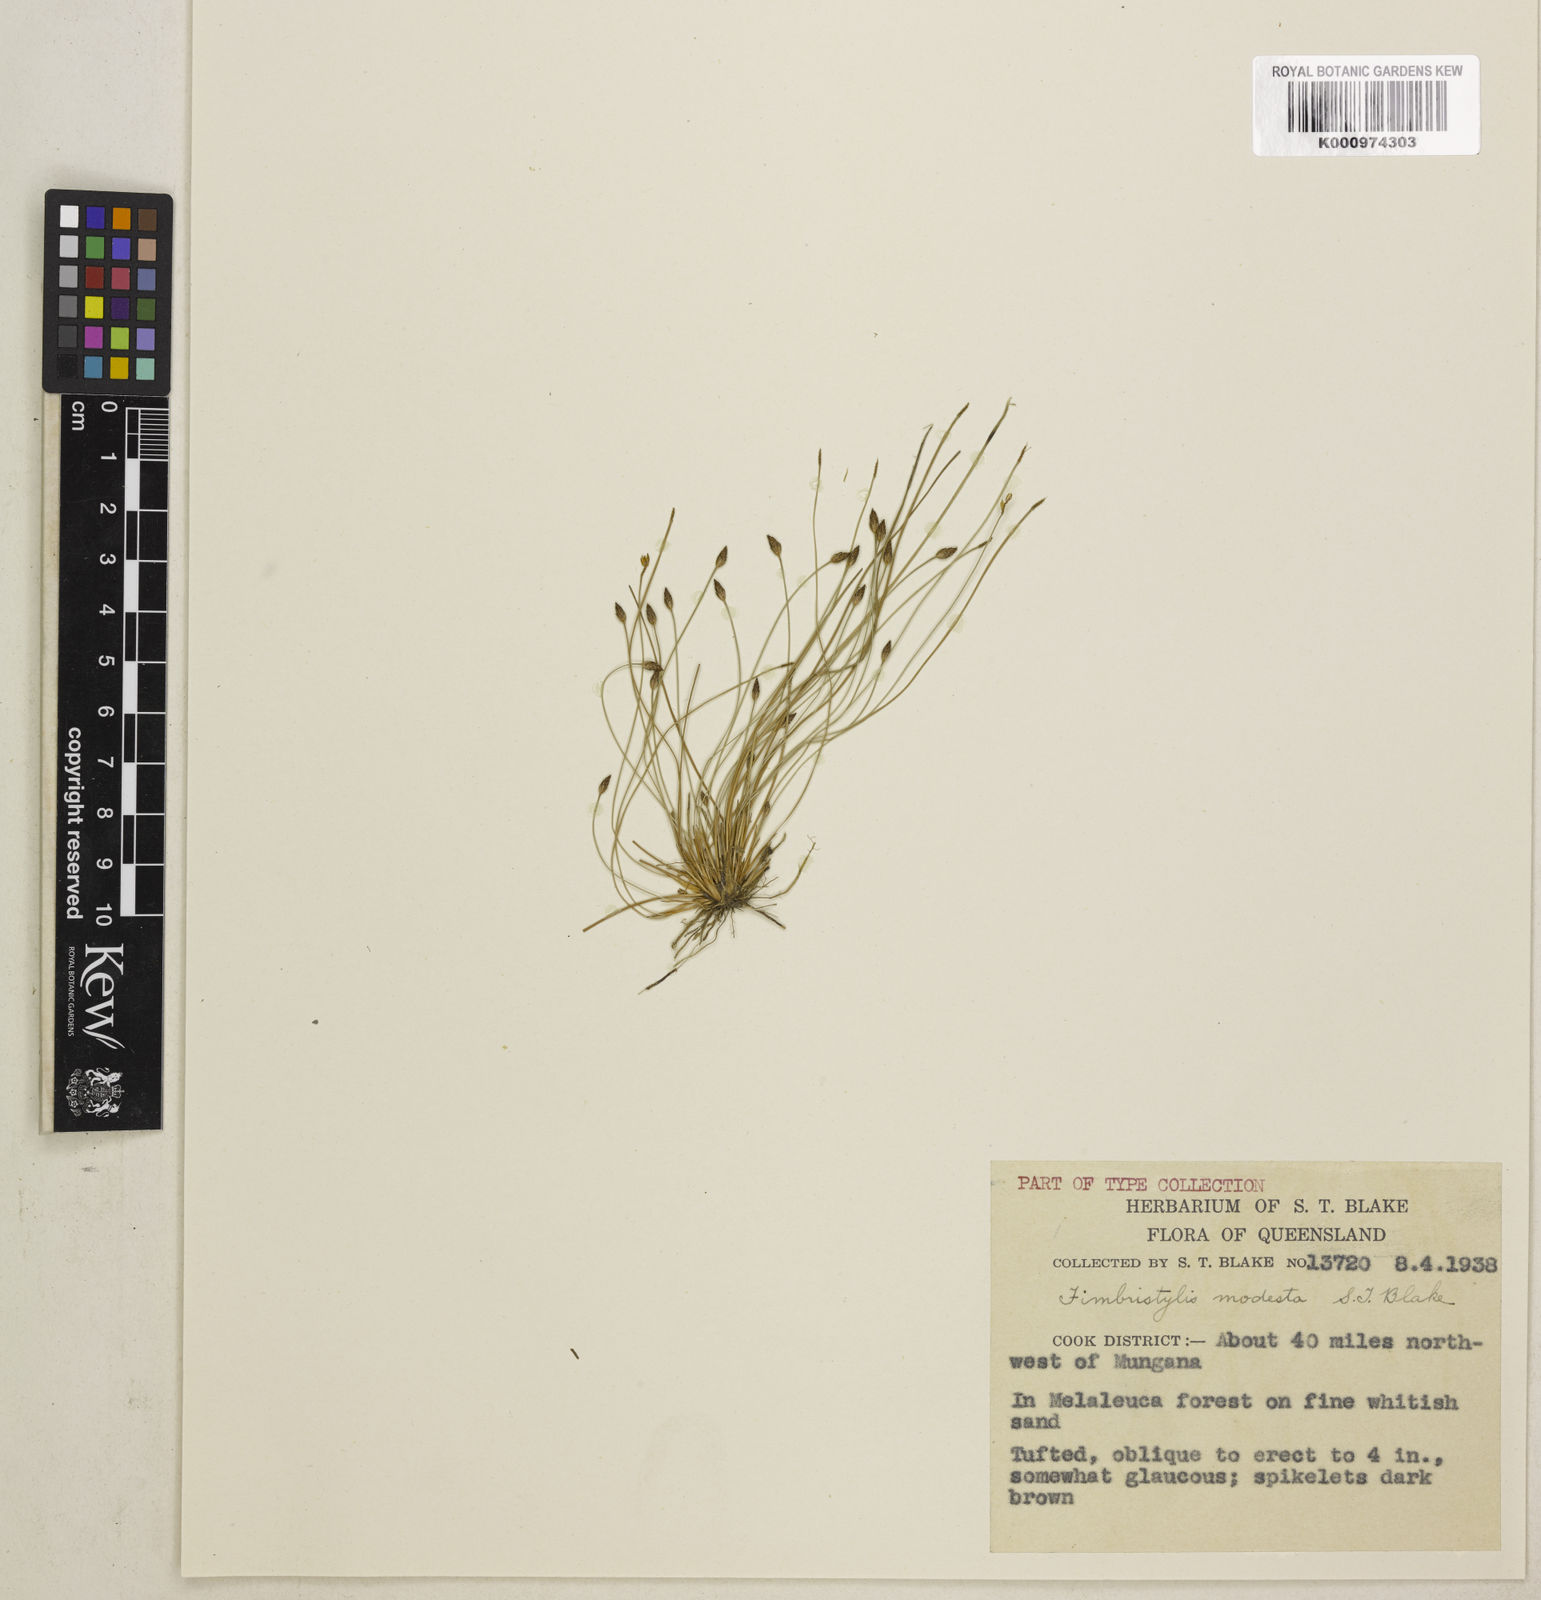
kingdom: Plantae
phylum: Tracheophyta
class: Liliopsida
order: Poales
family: Cyperaceae
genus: Fimbristylis
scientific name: Fimbristylis modesta
